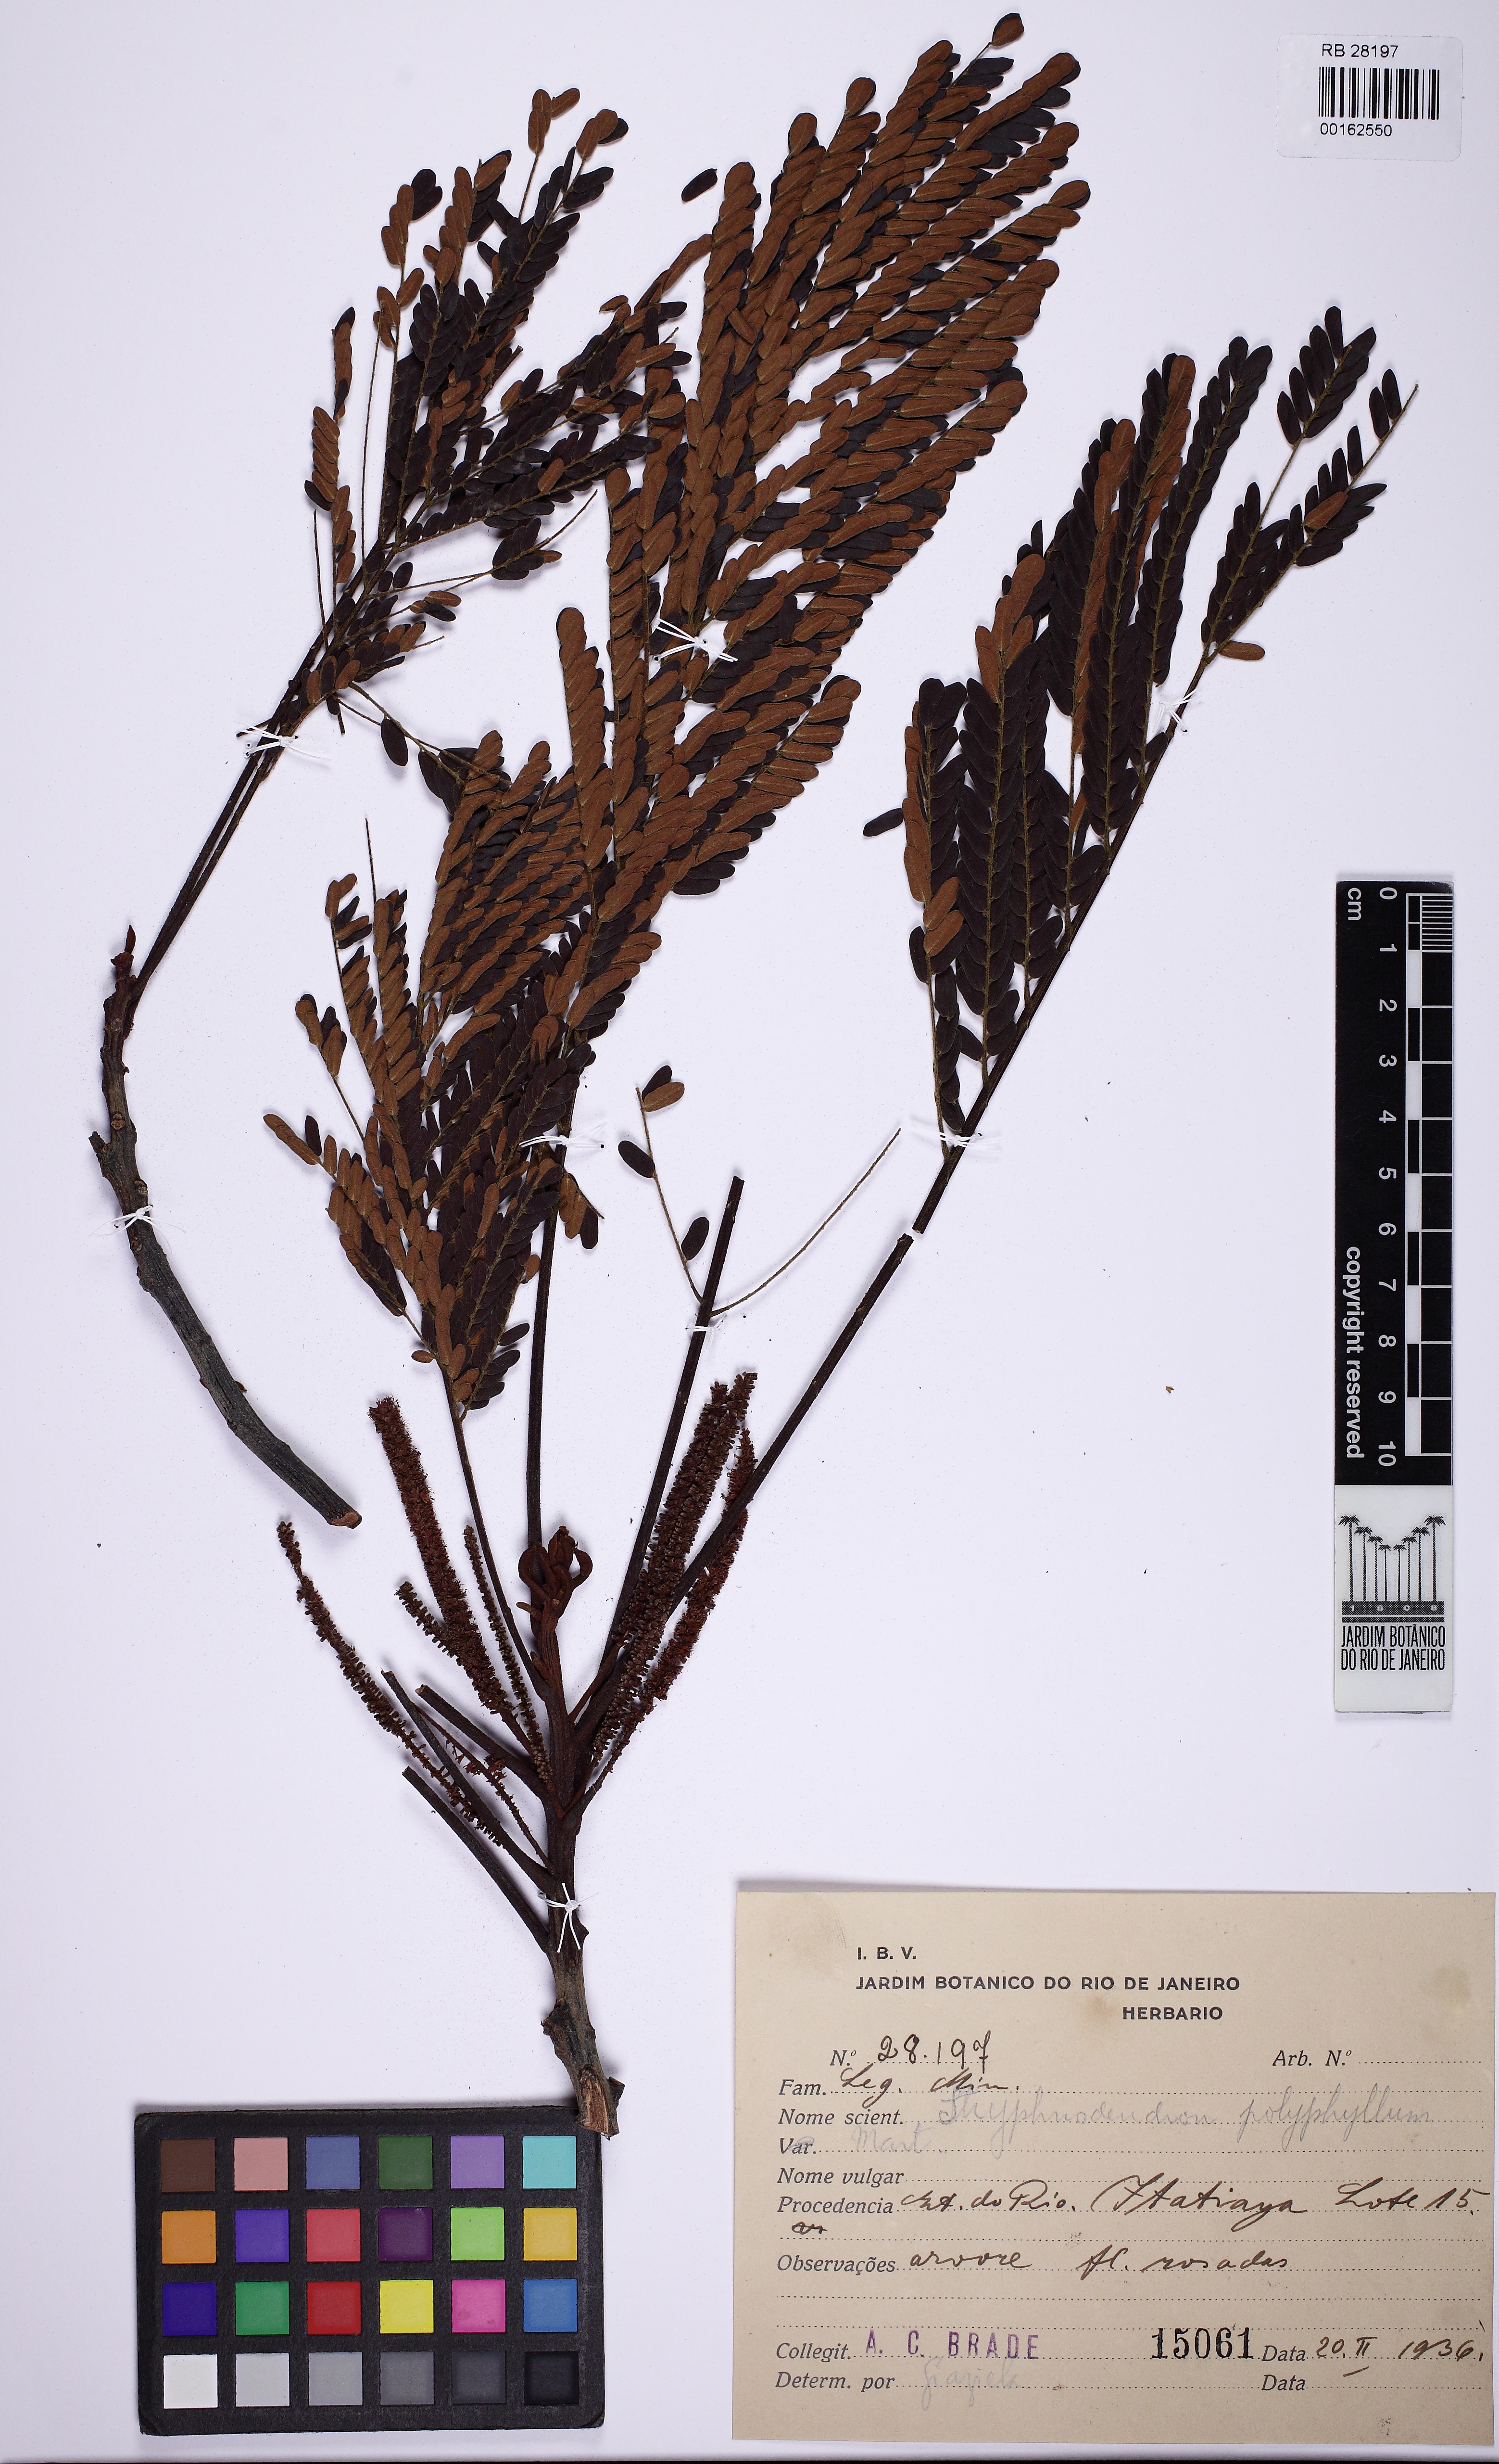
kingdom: Plantae
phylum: Tracheophyta
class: Magnoliopsida
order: Fabales
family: Fabaceae
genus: Stryphnodendron
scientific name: Stryphnodendron polyphyllum
